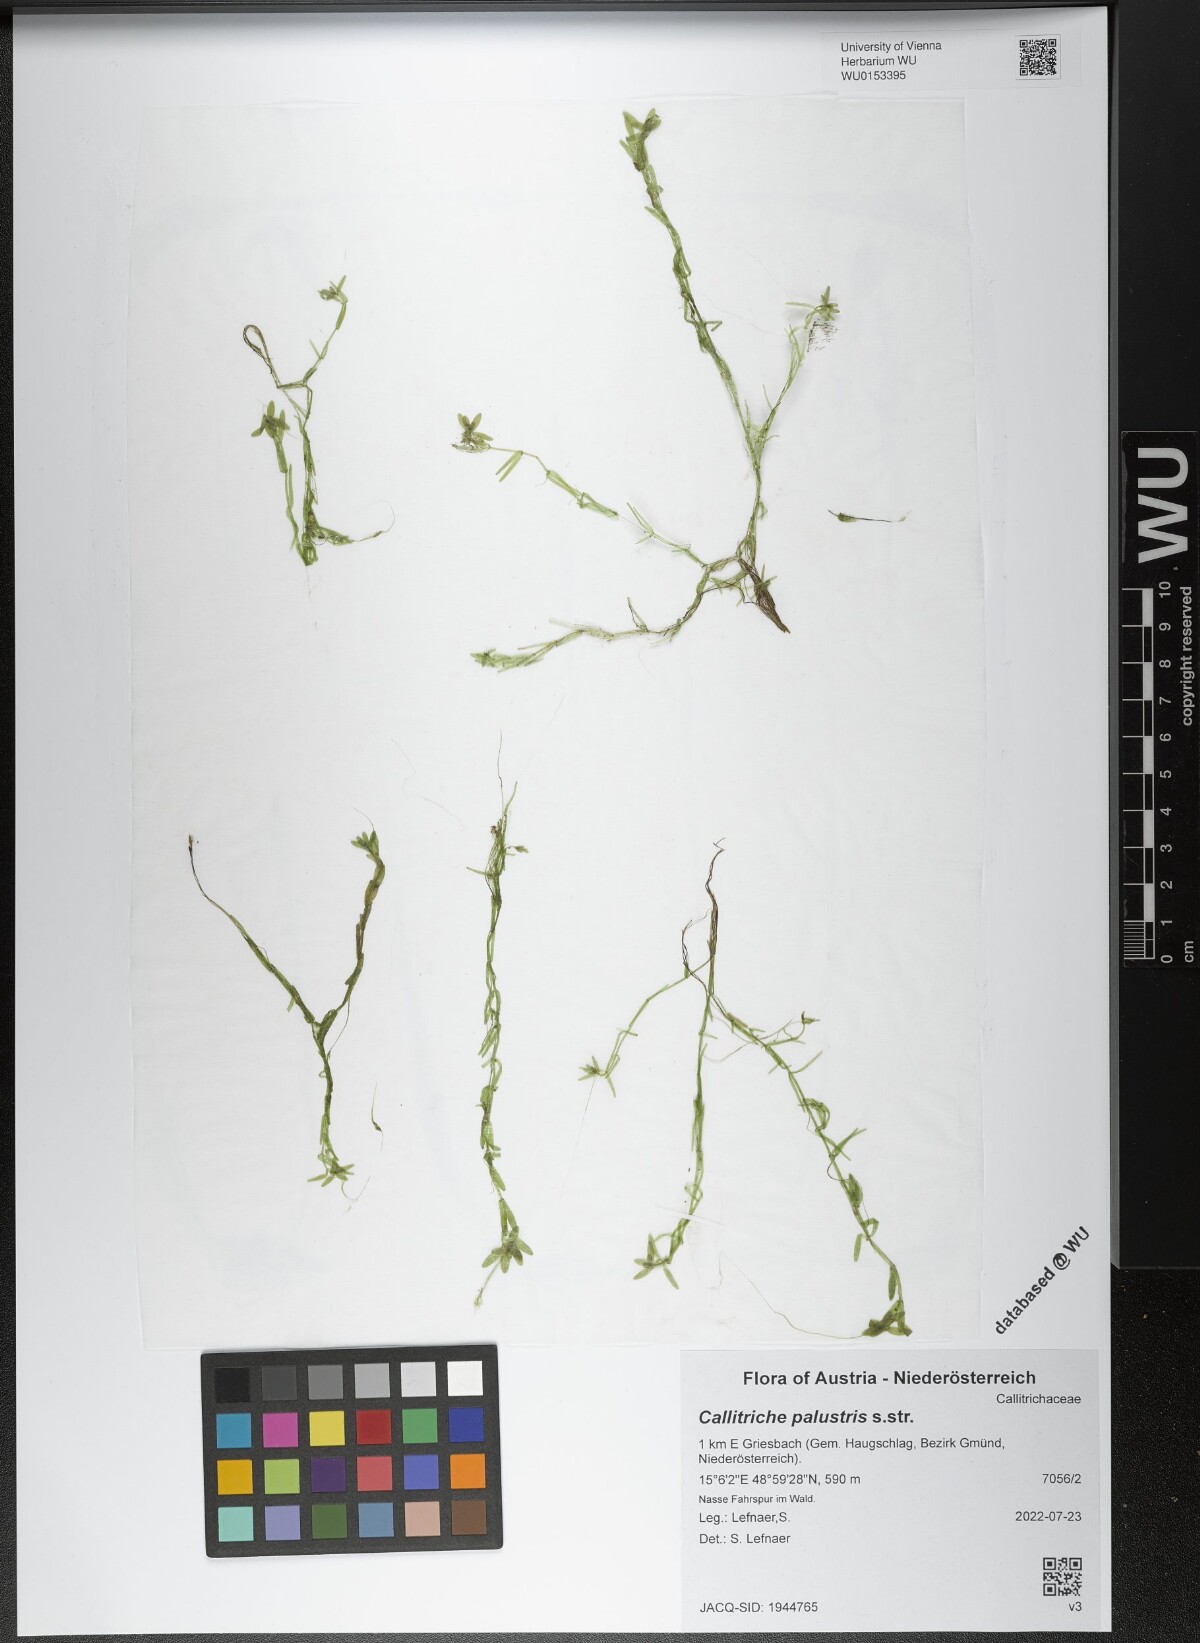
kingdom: Plantae
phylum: Tracheophyta
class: Magnoliopsida
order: Lamiales
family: Plantaginaceae
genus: Callitriche
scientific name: Callitriche palustris
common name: Spring water-starwort
